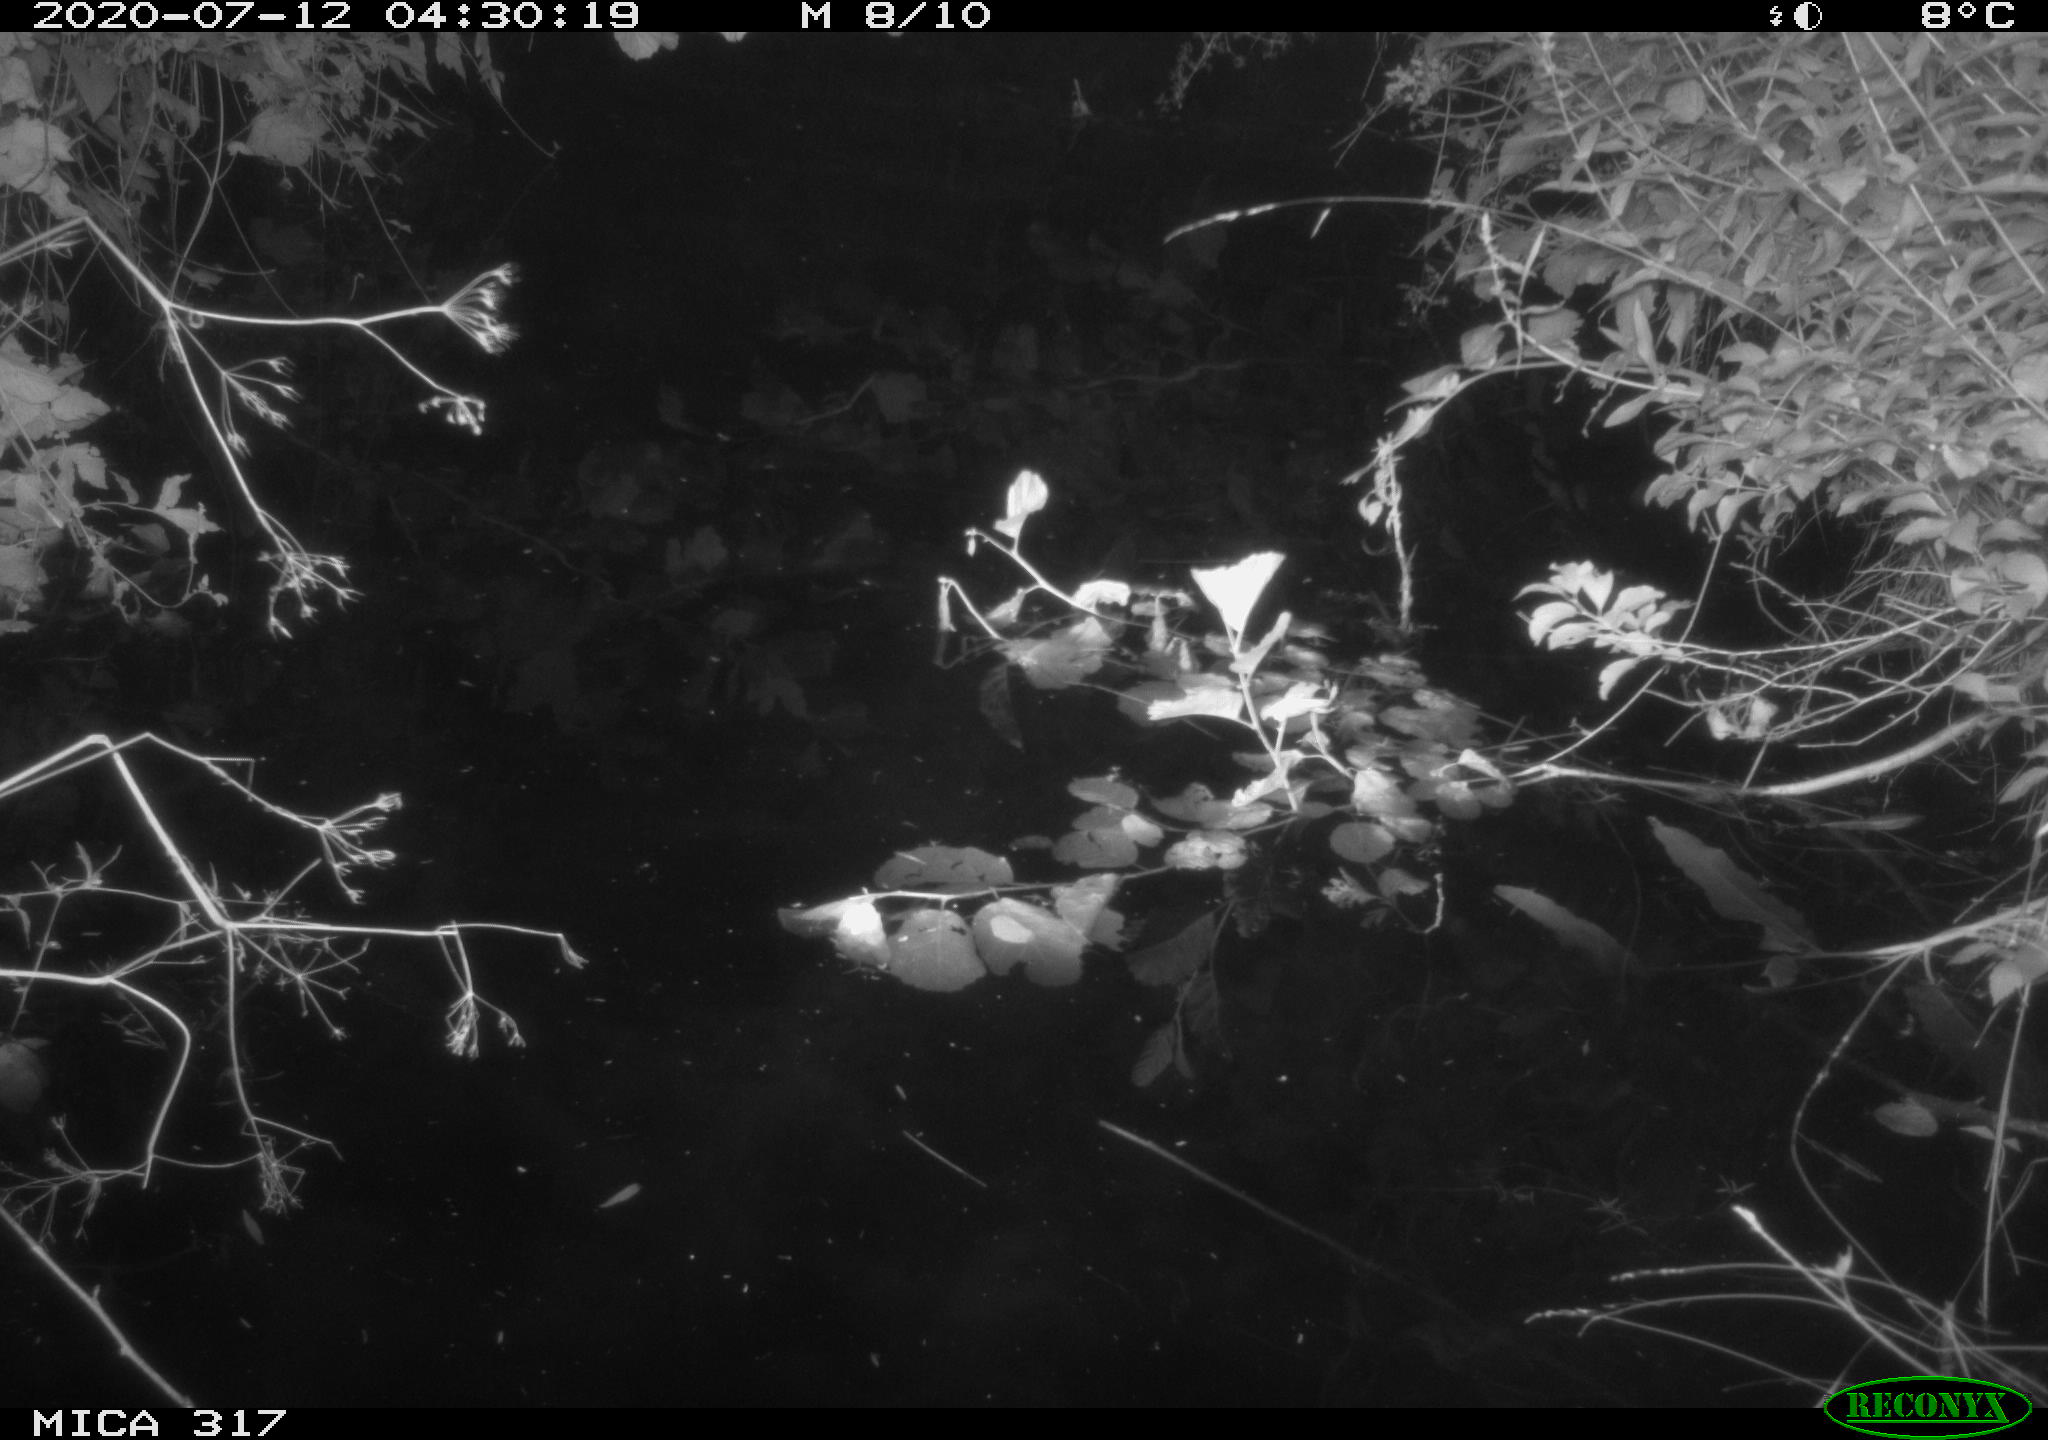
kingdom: Animalia
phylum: Chordata
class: Aves
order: Anseriformes
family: Anatidae
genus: Anas
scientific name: Anas platyrhynchos
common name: Mallard
